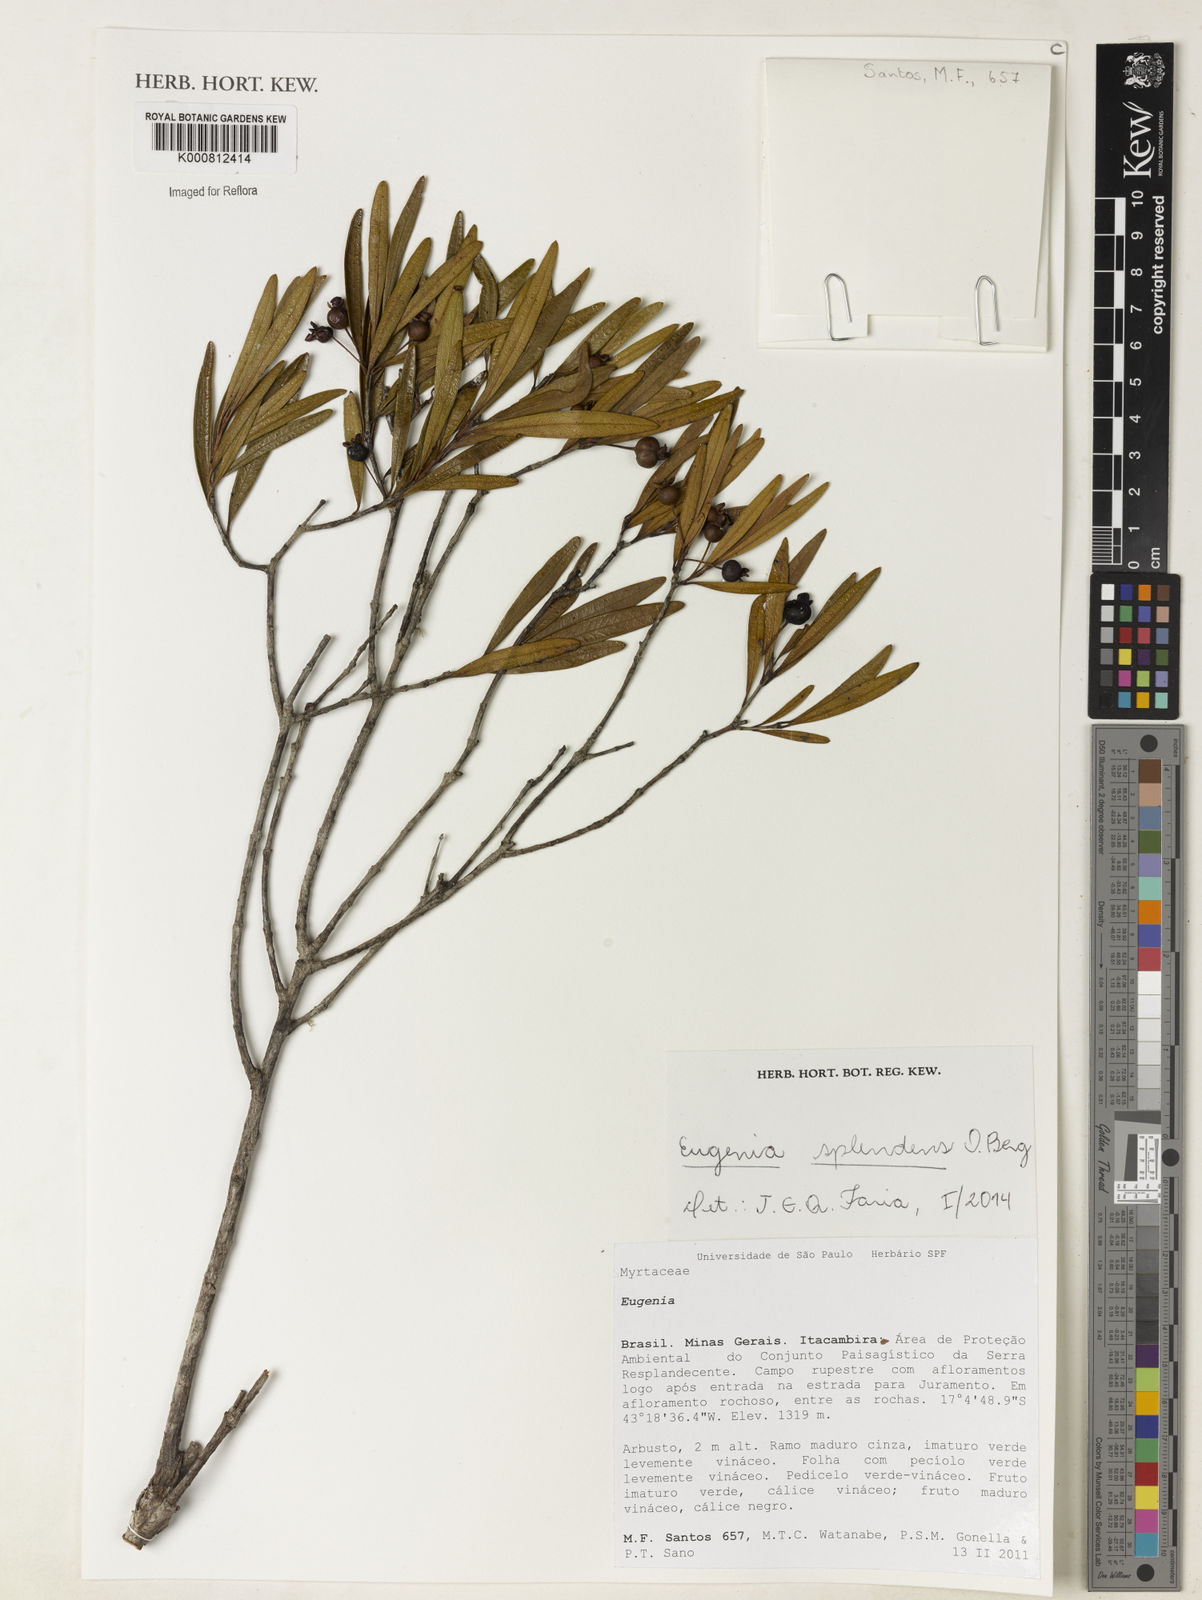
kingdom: Plantae
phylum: Tracheophyta
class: Magnoliopsida
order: Myrtales
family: Myrtaceae
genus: Eugenia
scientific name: Eugenia splendens
